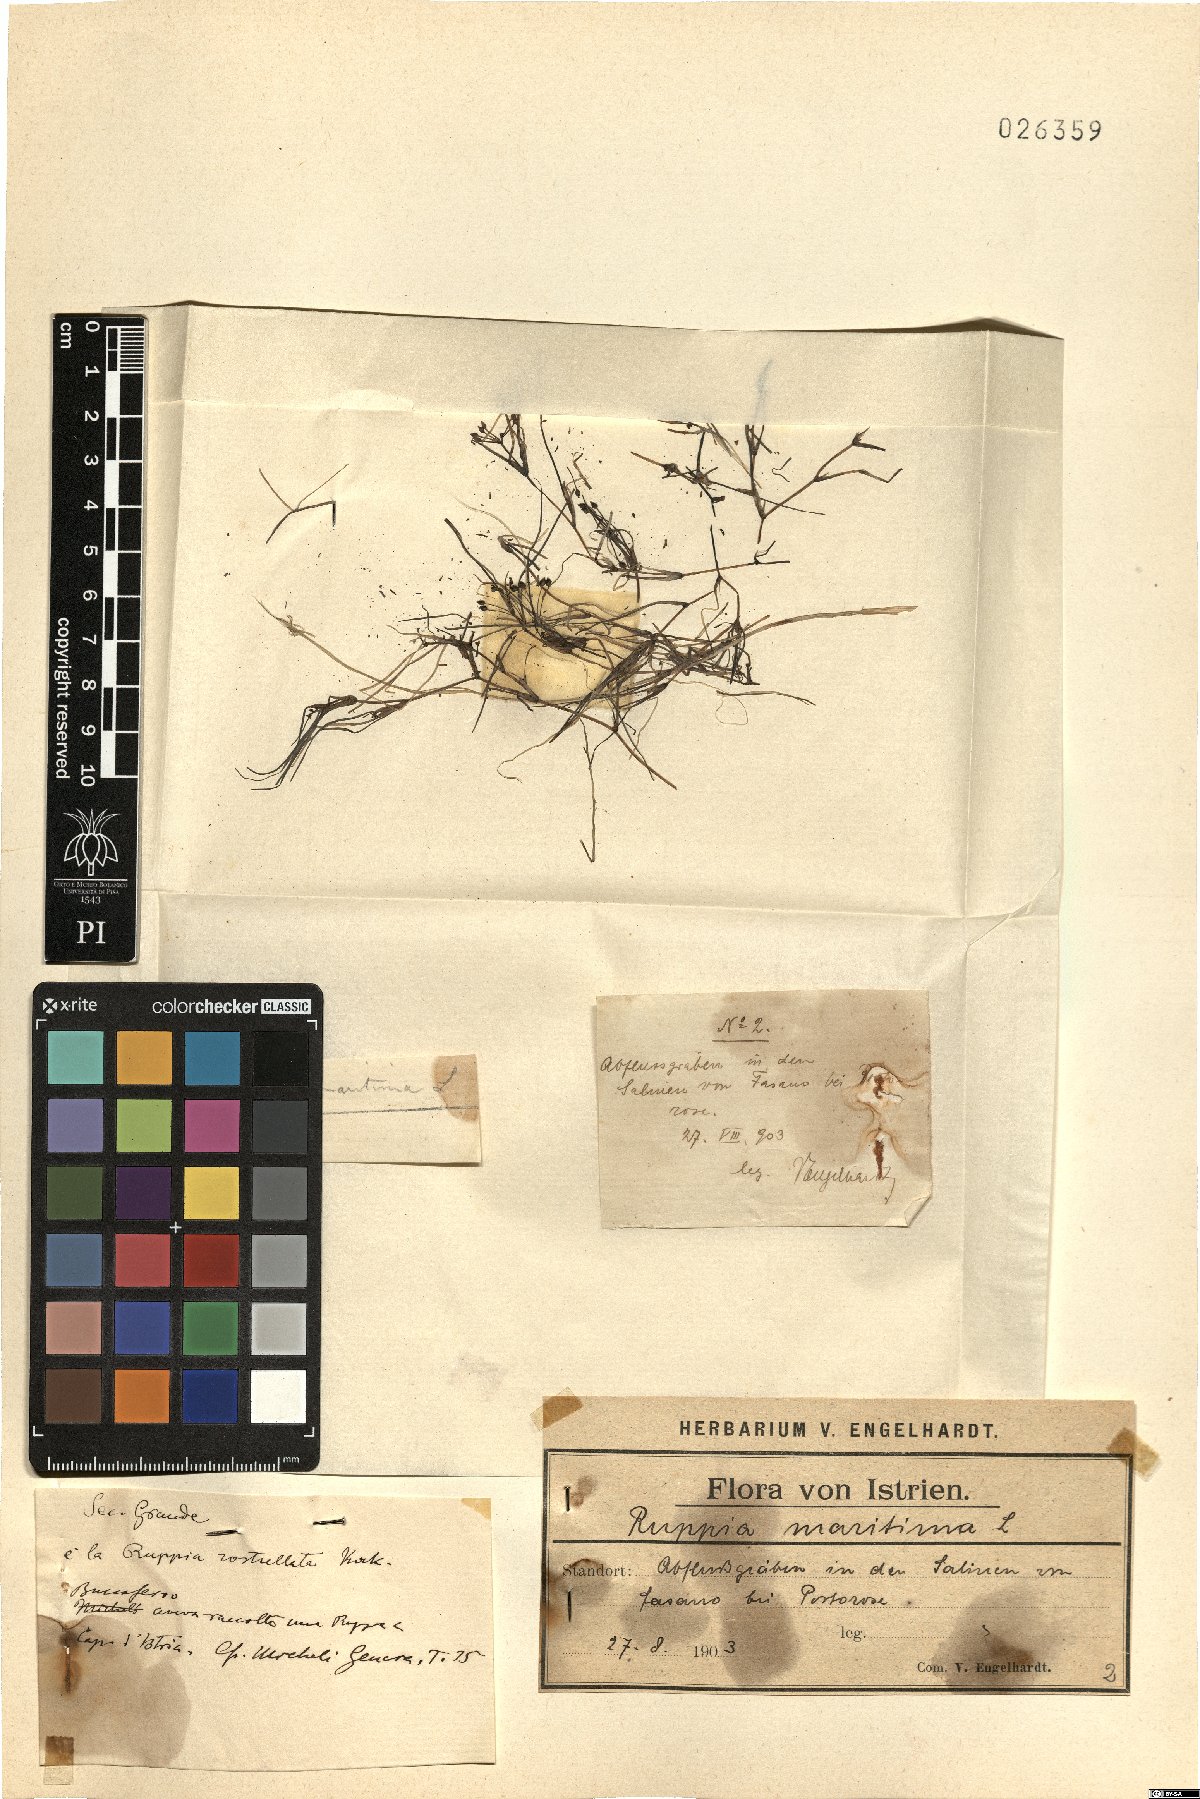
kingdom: Plantae
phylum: Tracheophyta
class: Liliopsida
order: Alismatales
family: Ruppiaceae
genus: Ruppia
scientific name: Ruppia maritima
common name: Beaked tasselweed
